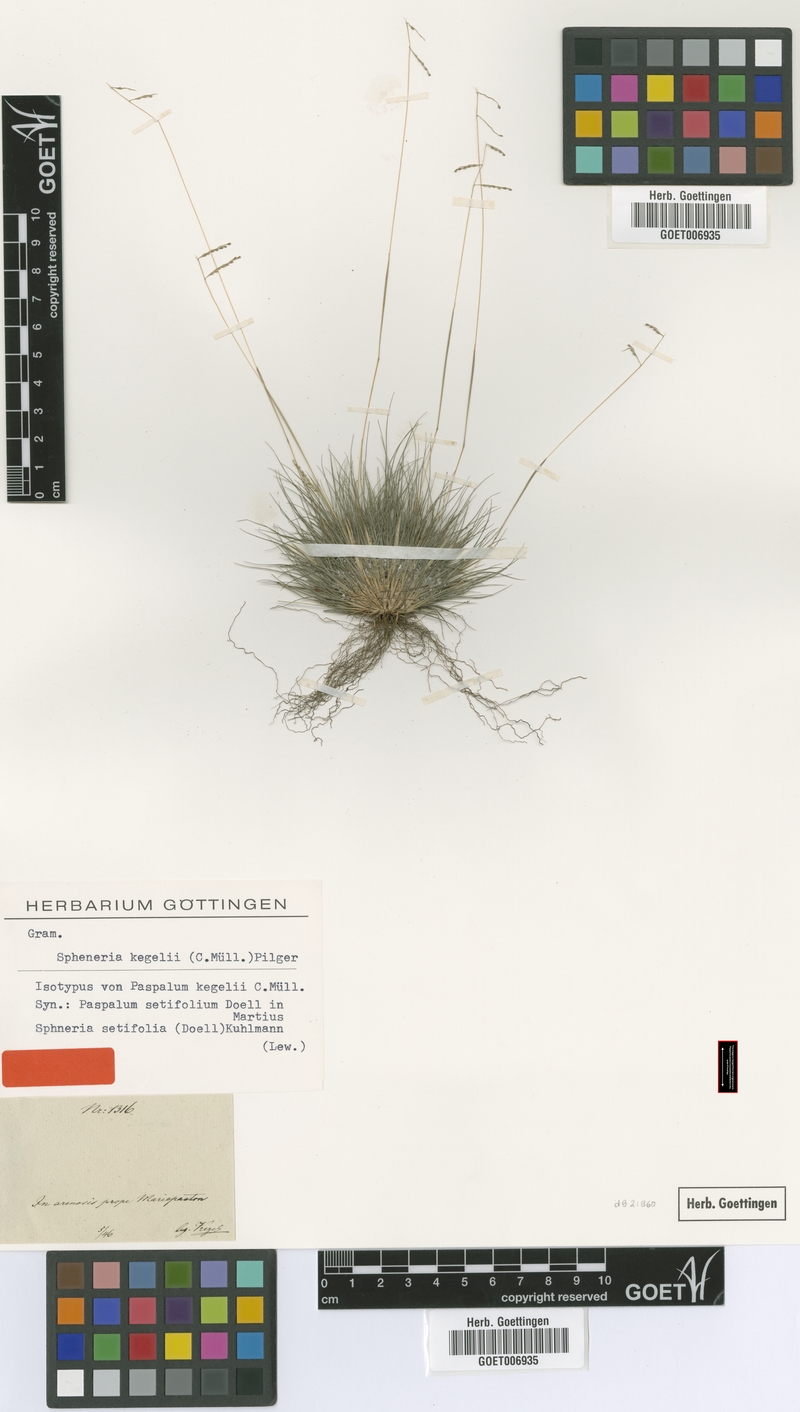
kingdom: Plantae
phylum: Tracheophyta
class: Liliopsida
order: Poales
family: Poaceae
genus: Spheneria
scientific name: Spheneria kegelii
